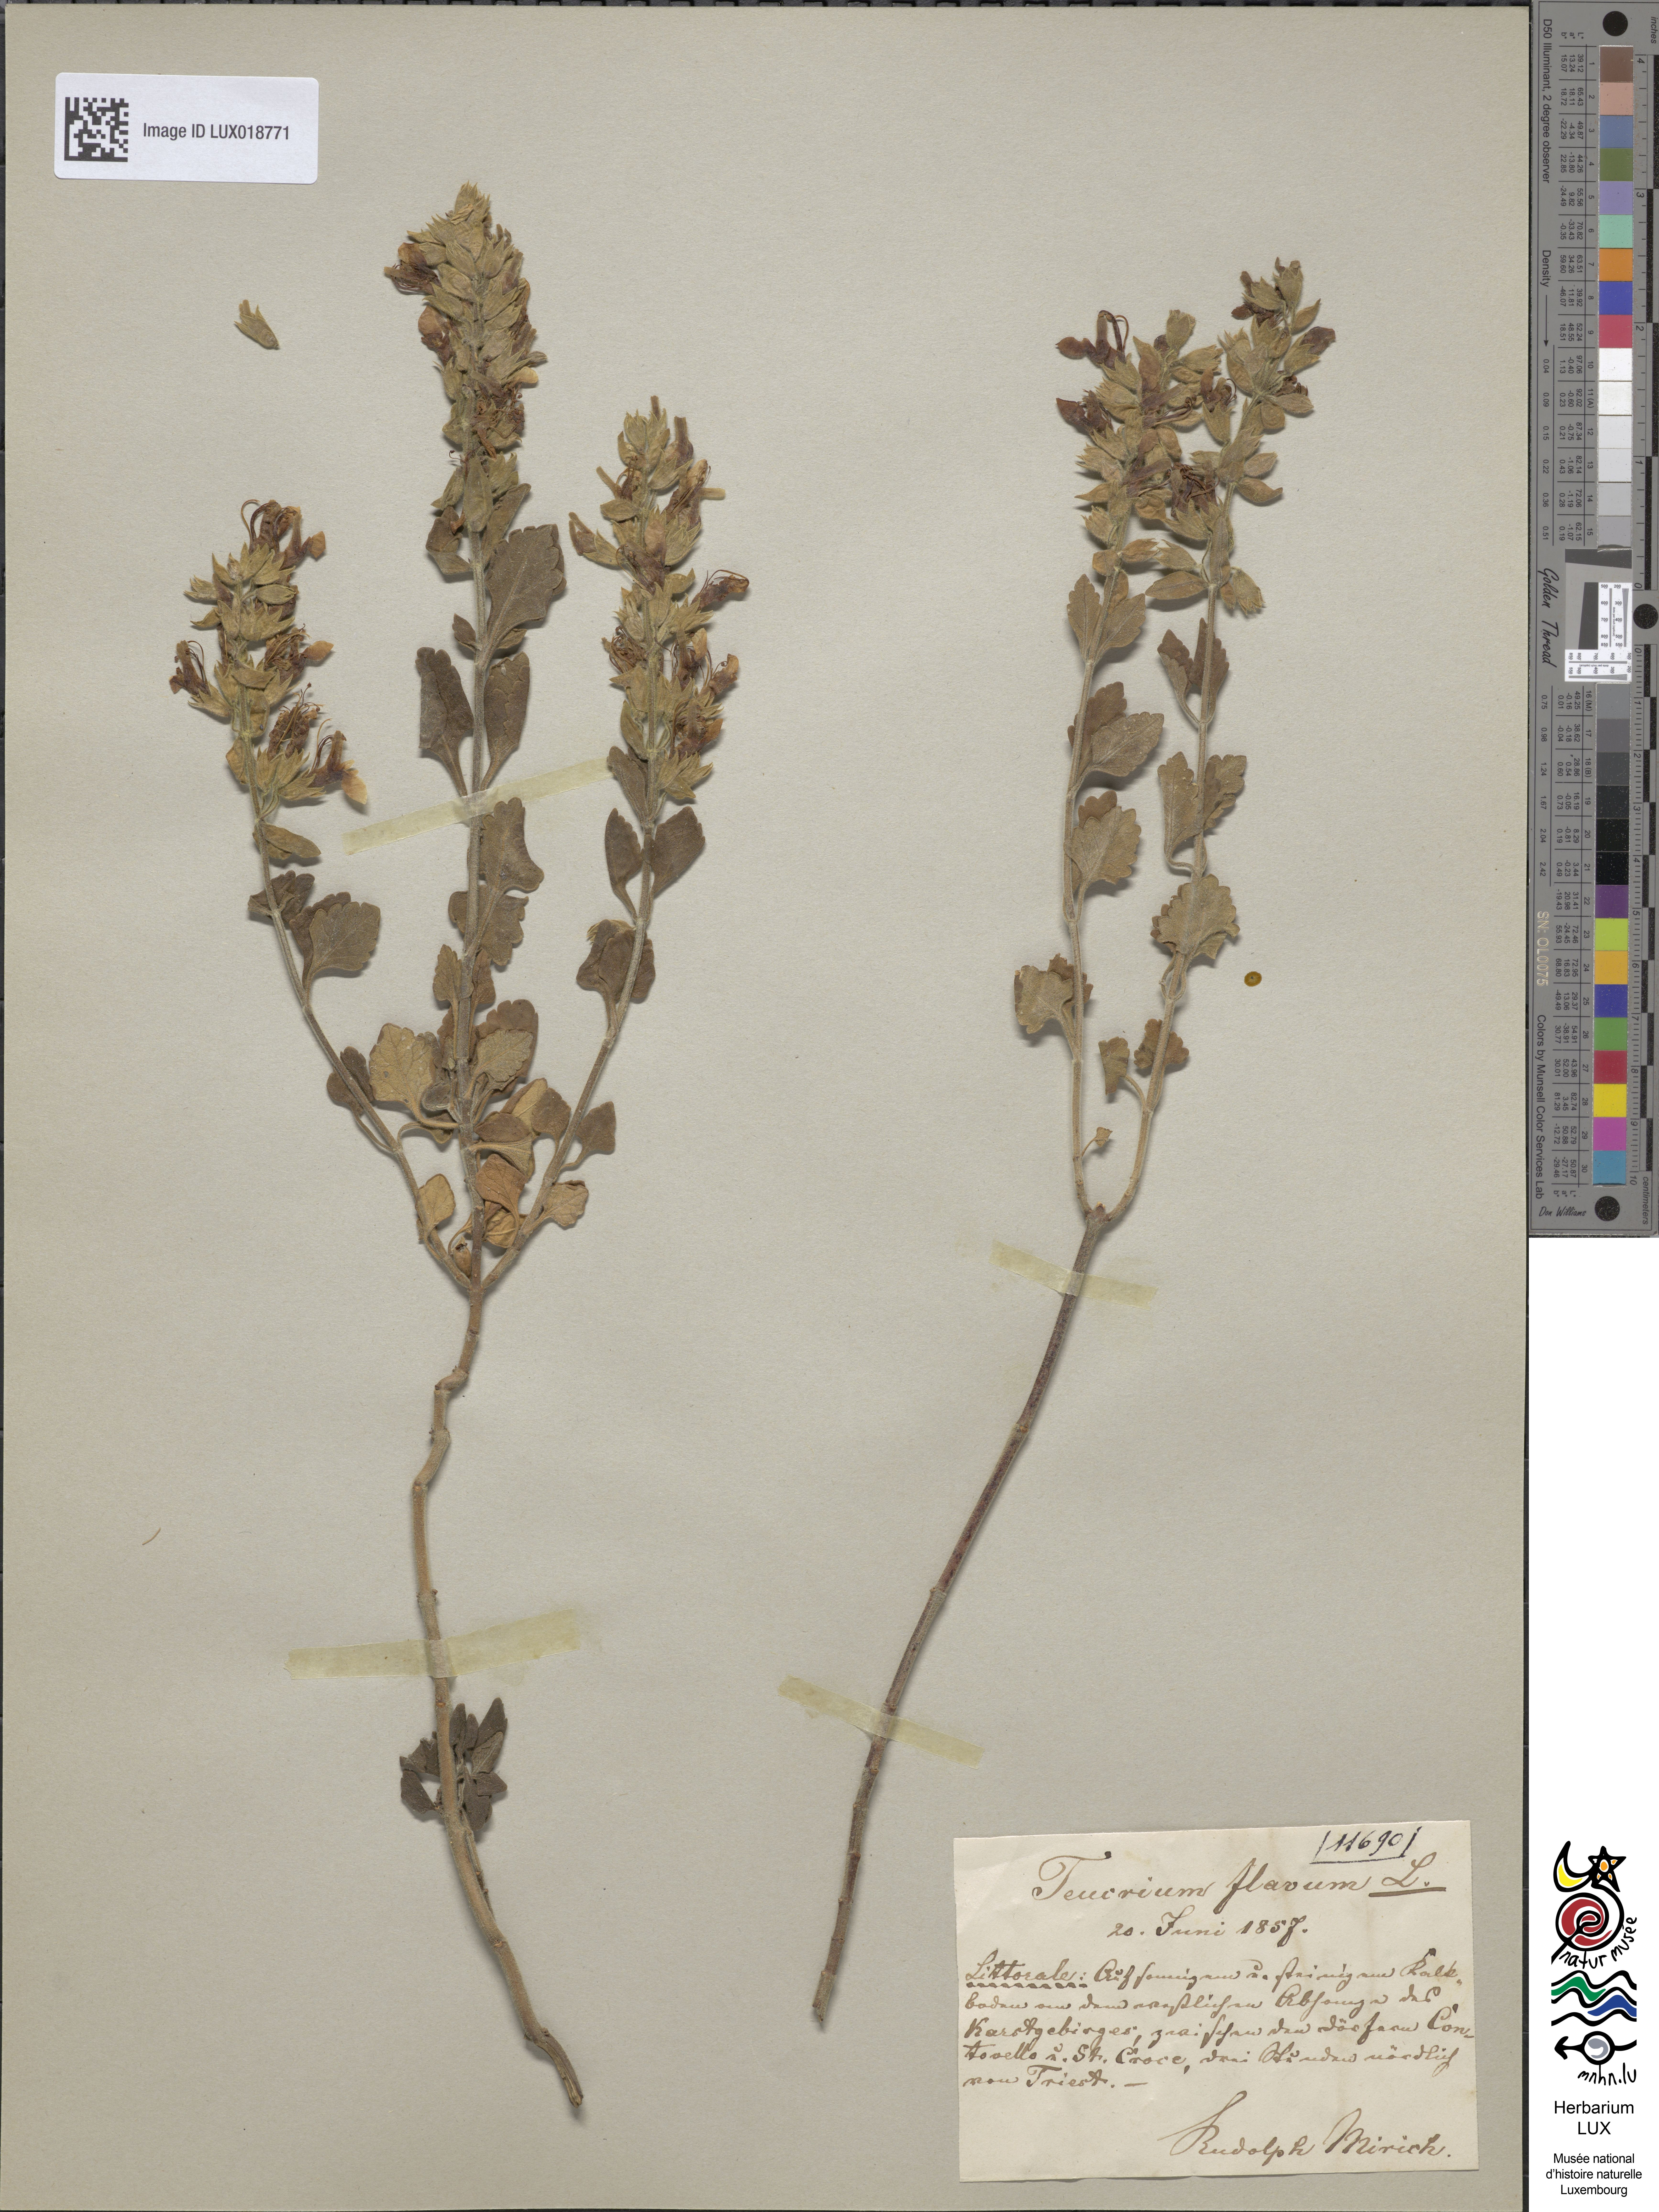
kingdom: Plantae
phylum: Tracheophyta
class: Magnoliopsida
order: Lamiales
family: Lamiaceae
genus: Teucrium
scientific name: Teucrium flavum
